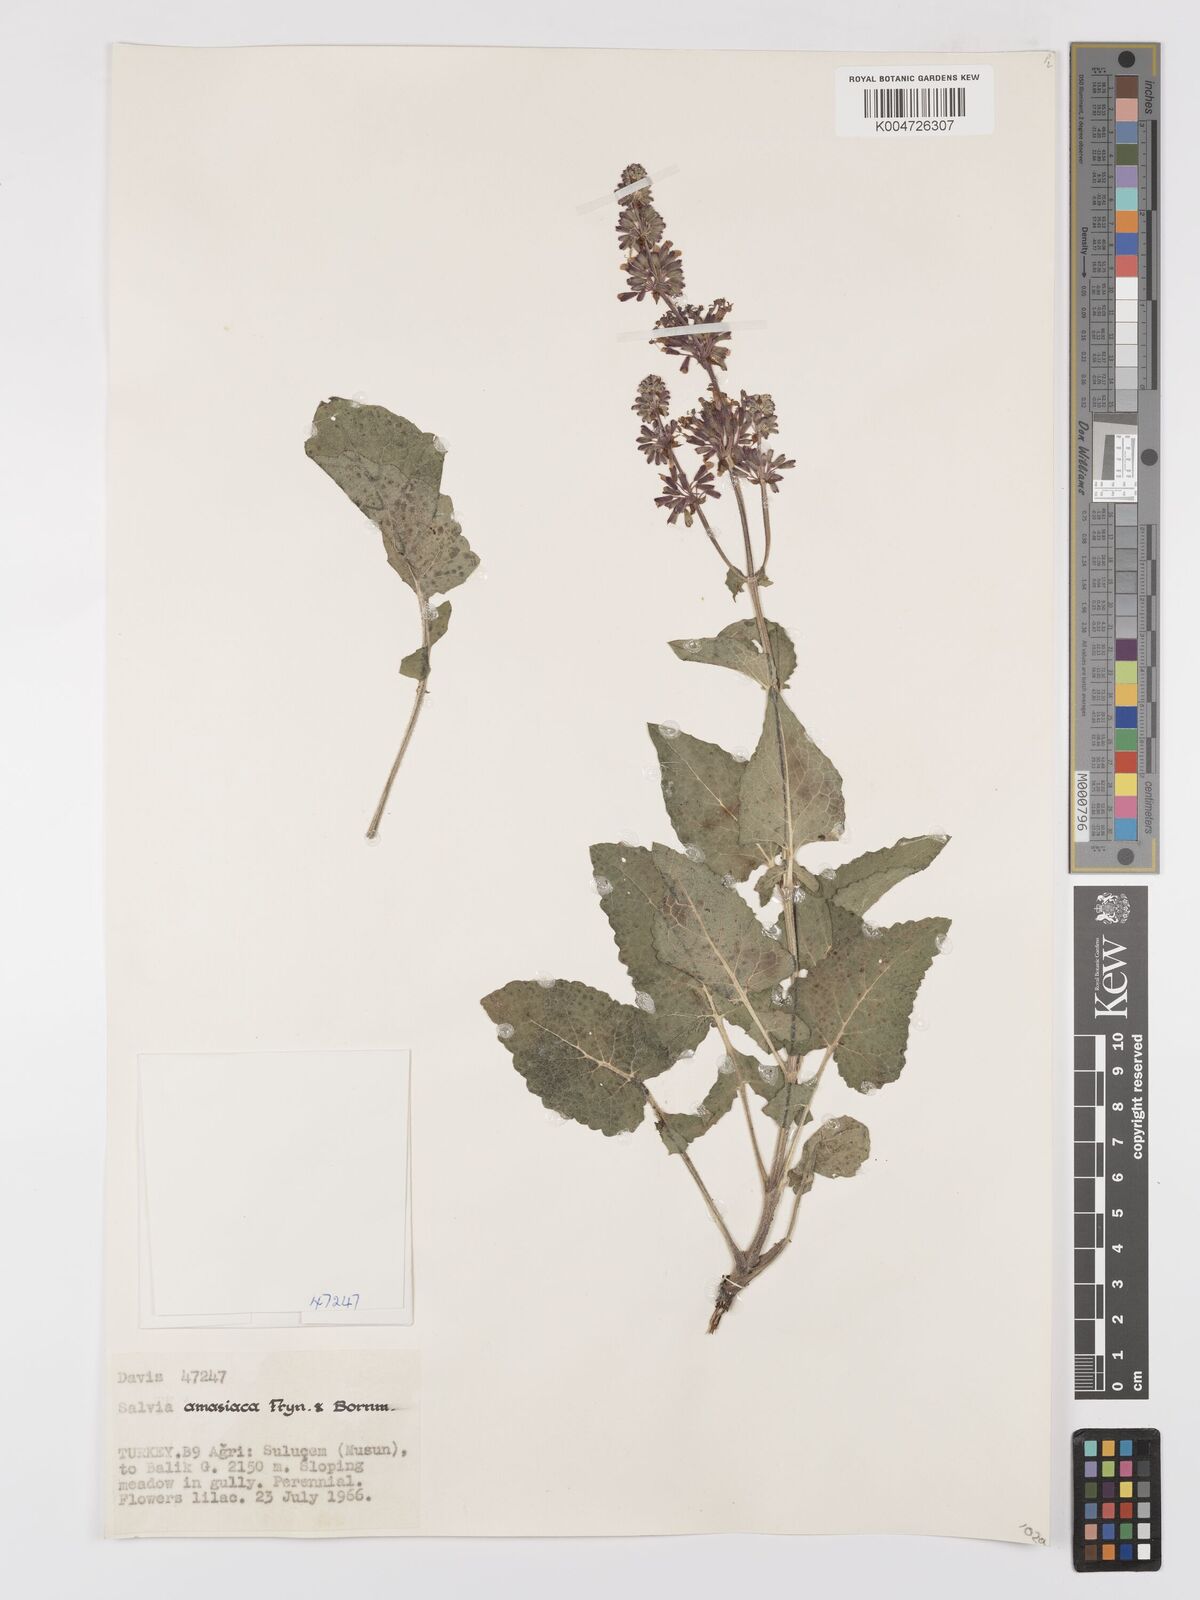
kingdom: Plantae
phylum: Tracheophyta
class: Magnoliopsida
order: Lamiales
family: Lamiaceae
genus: Salvia
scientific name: Salvia verticillata
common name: Whorled clary
